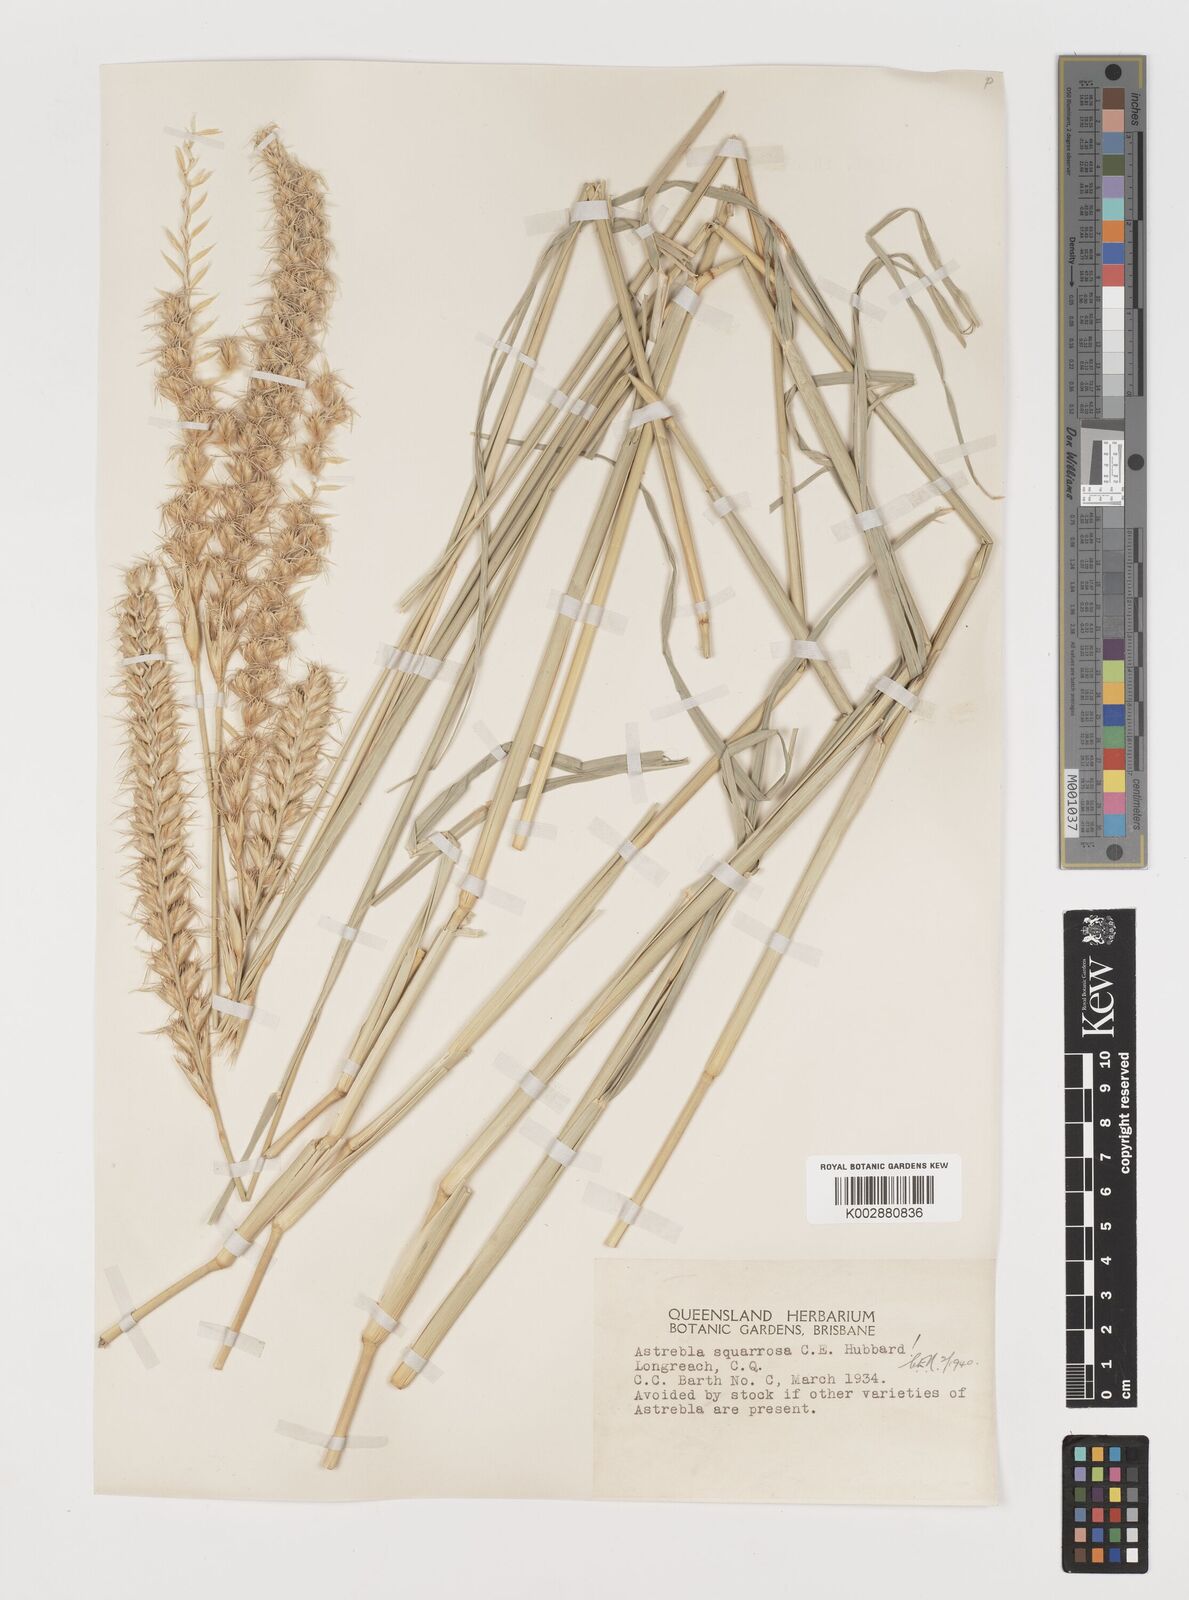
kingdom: Plantae
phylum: Tracheophyta
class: Liliopsida
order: Poales
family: Poaceae
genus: Astrebla
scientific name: Astrebla squarrosa
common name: Wheat-ear mitchell grass
